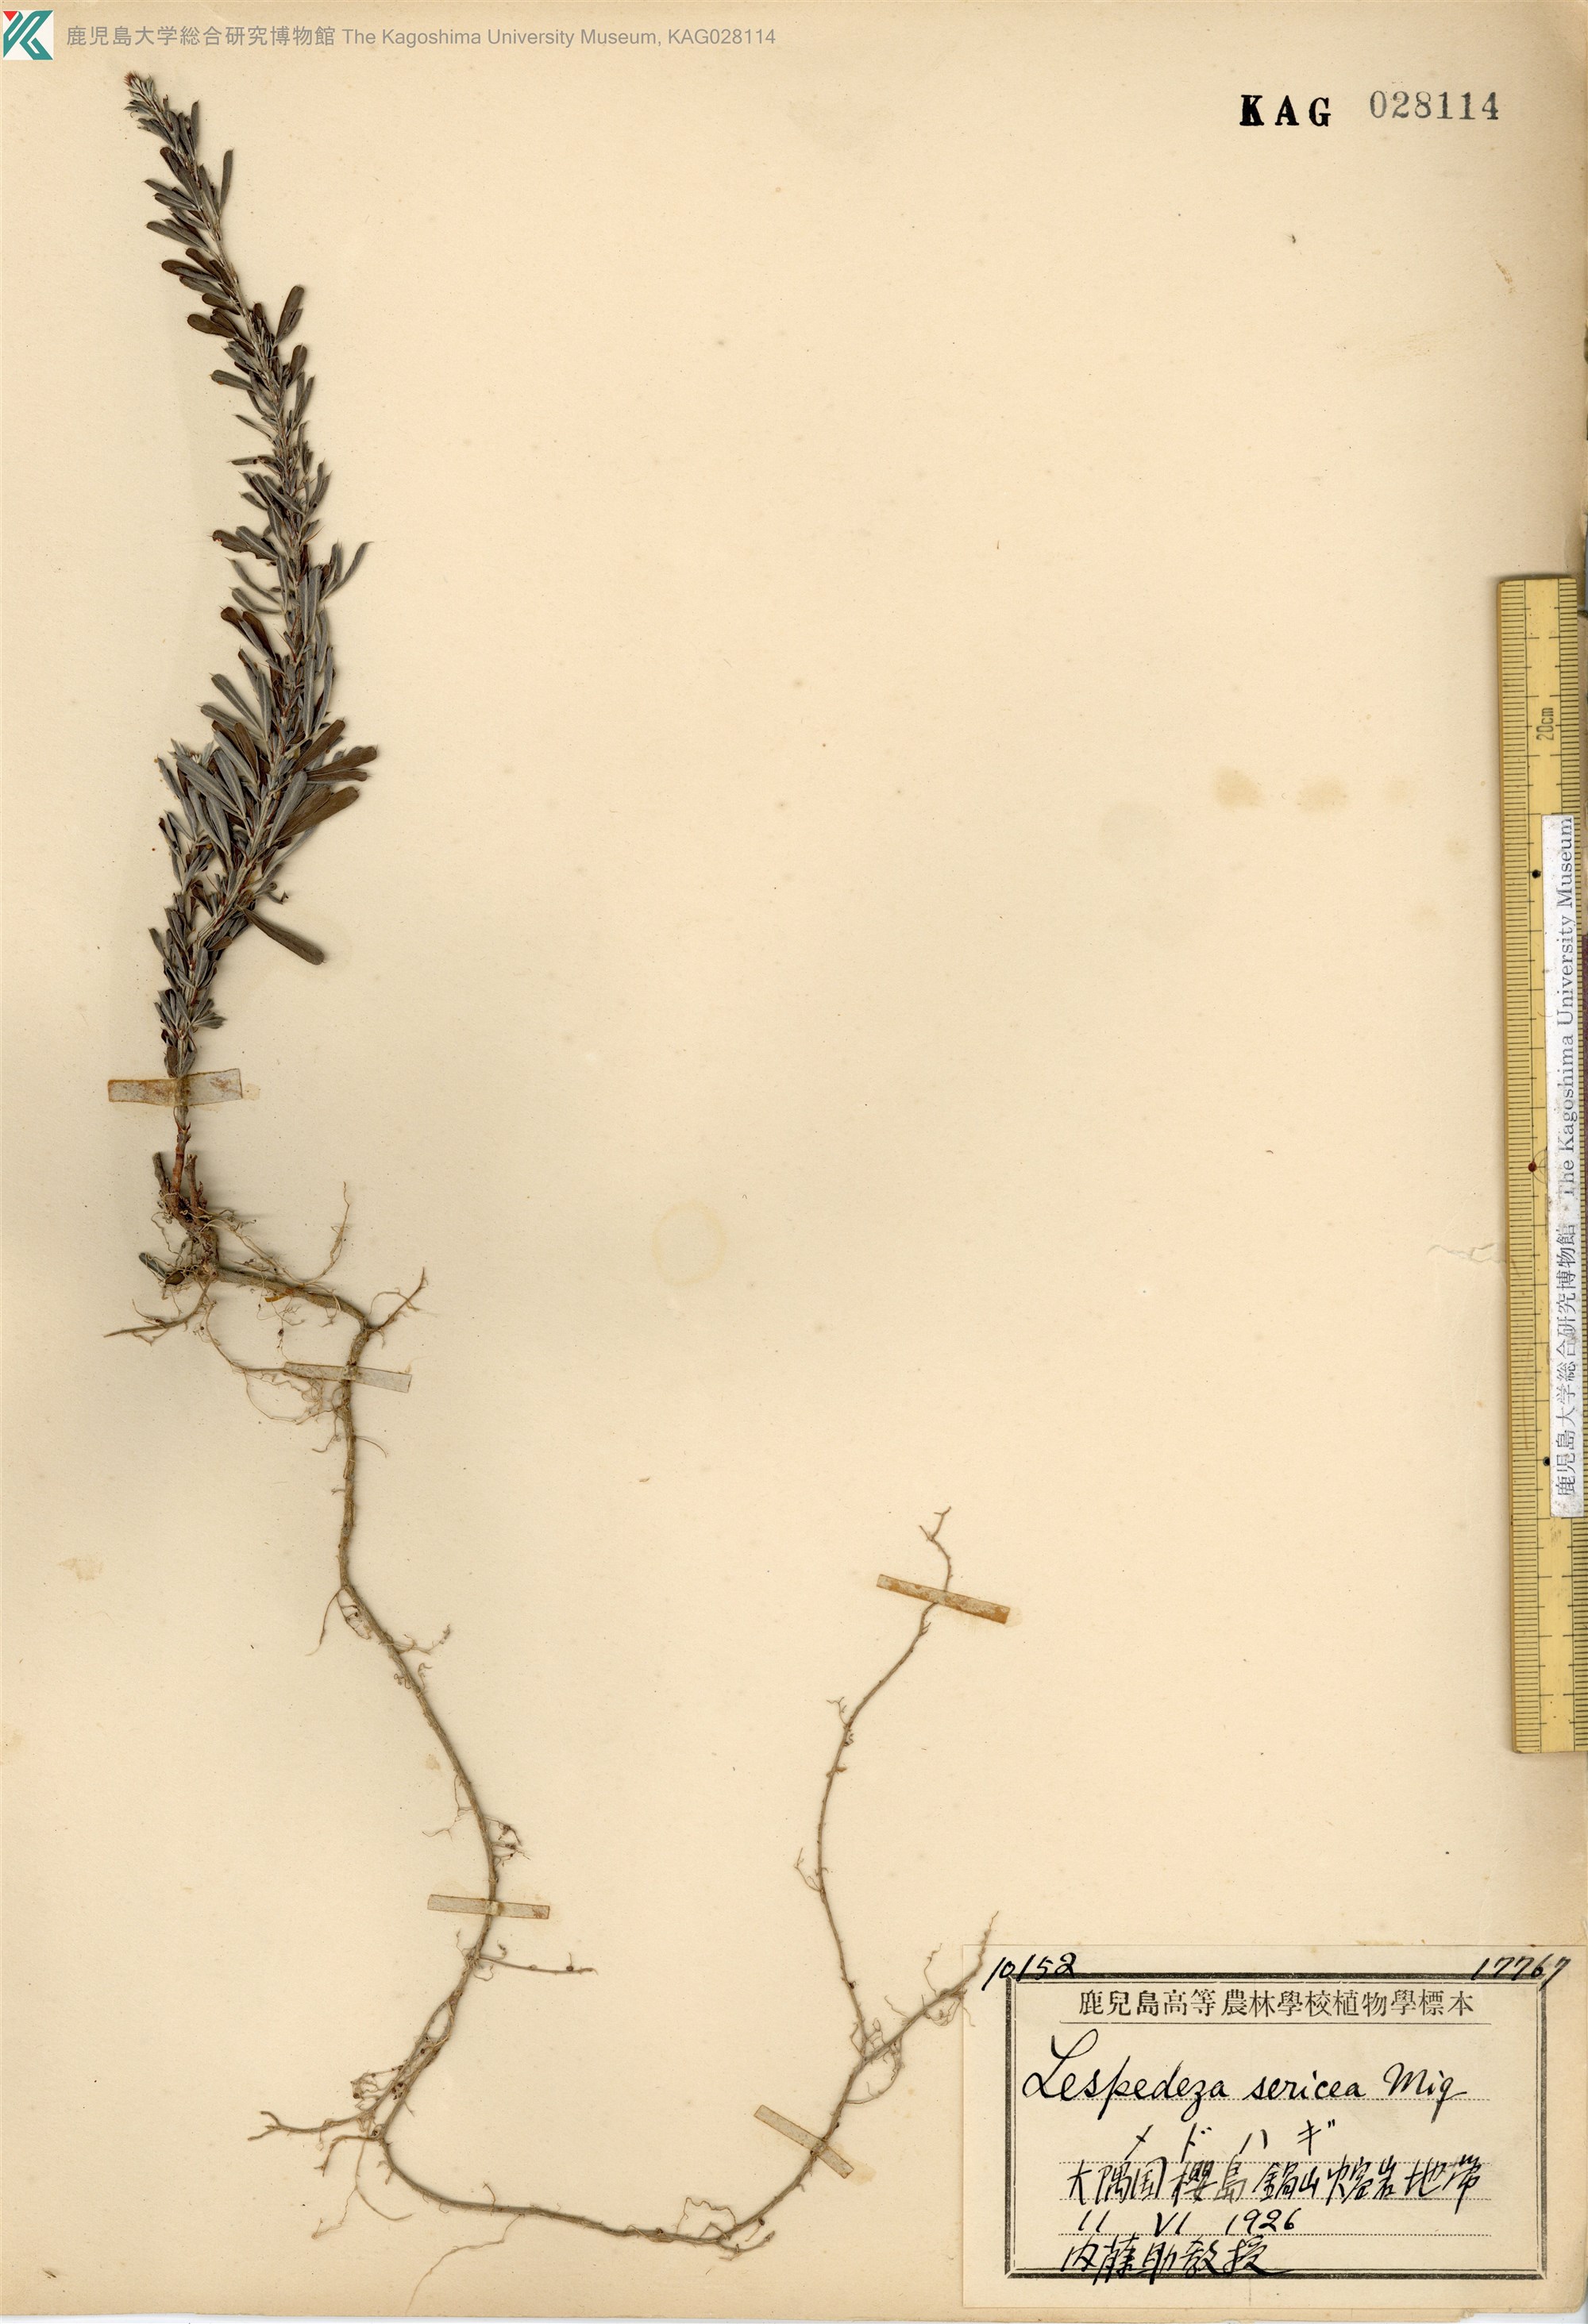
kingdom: Plantae
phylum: Tracheophyta
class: Magnoliopsida
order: Fabales
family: Fabaceae
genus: Lespedeza
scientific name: Lespedeza cuneata
